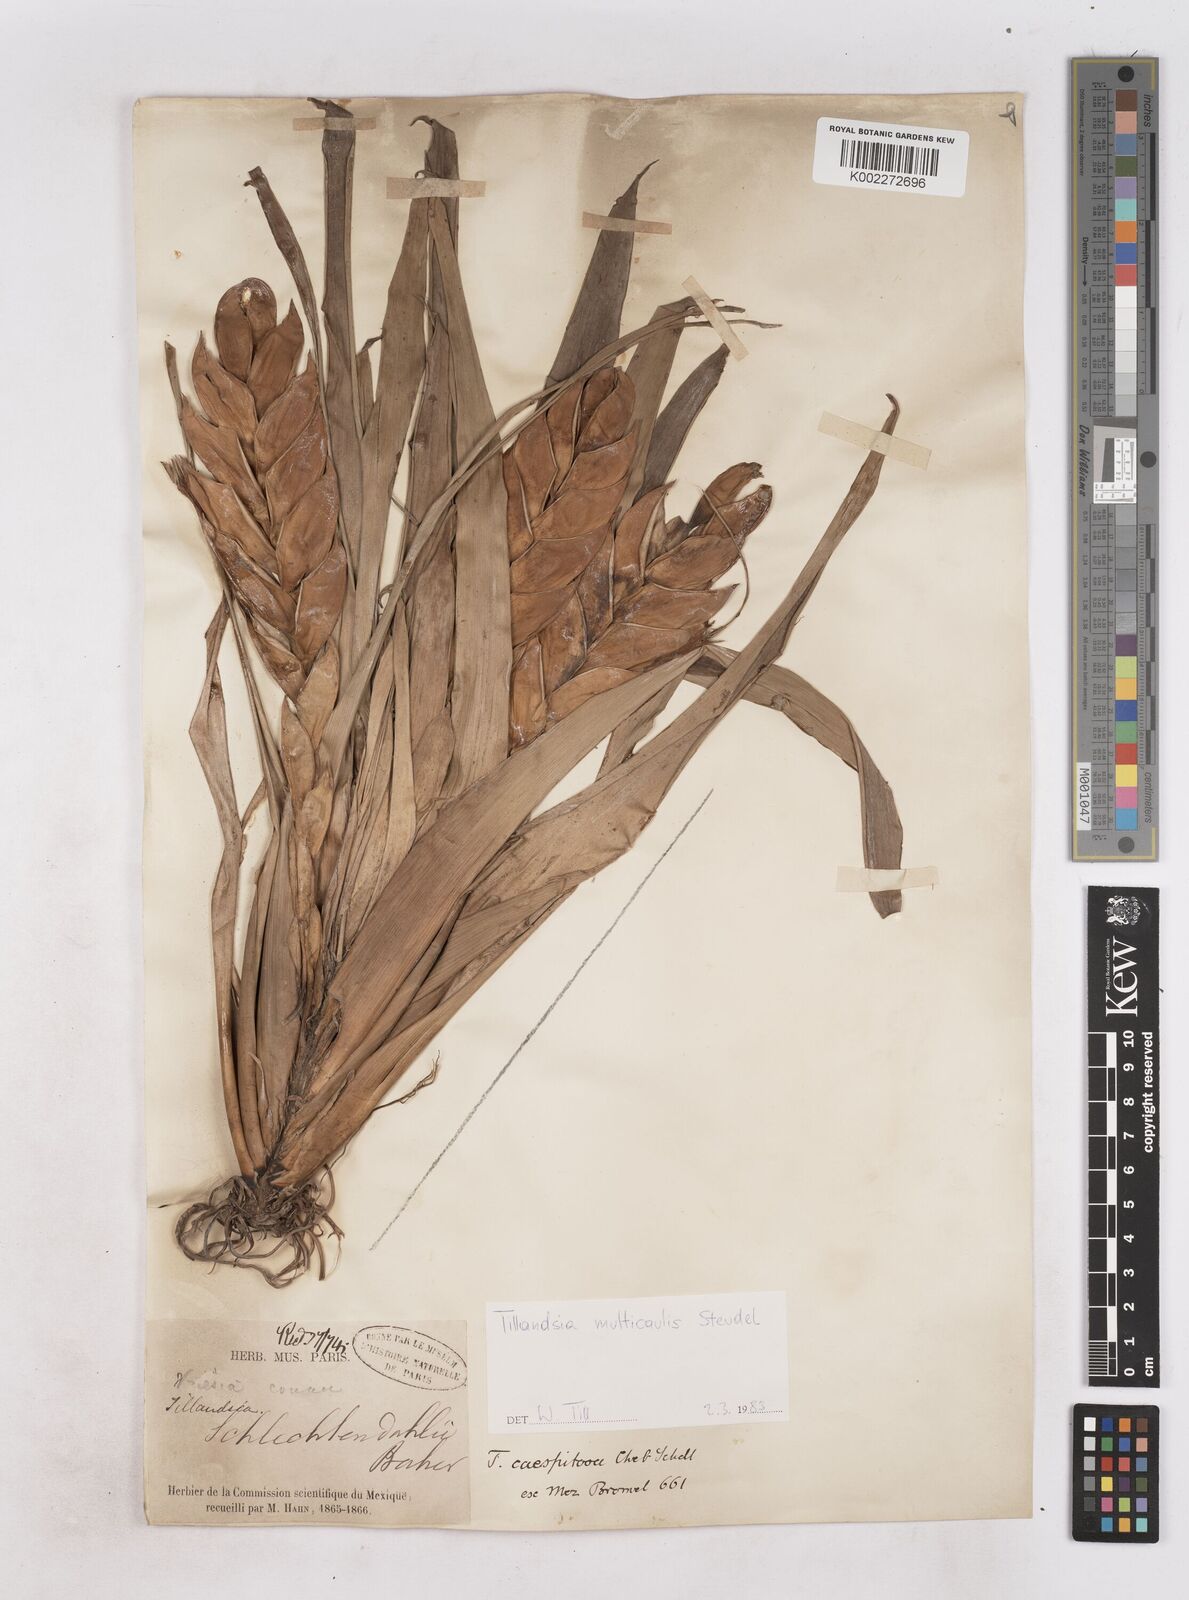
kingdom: Plantae
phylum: Tracheophyta
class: Liliopsida
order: Poales
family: Bromeliaceae
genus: Tillandsia
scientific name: Tillandsia multicaulis
